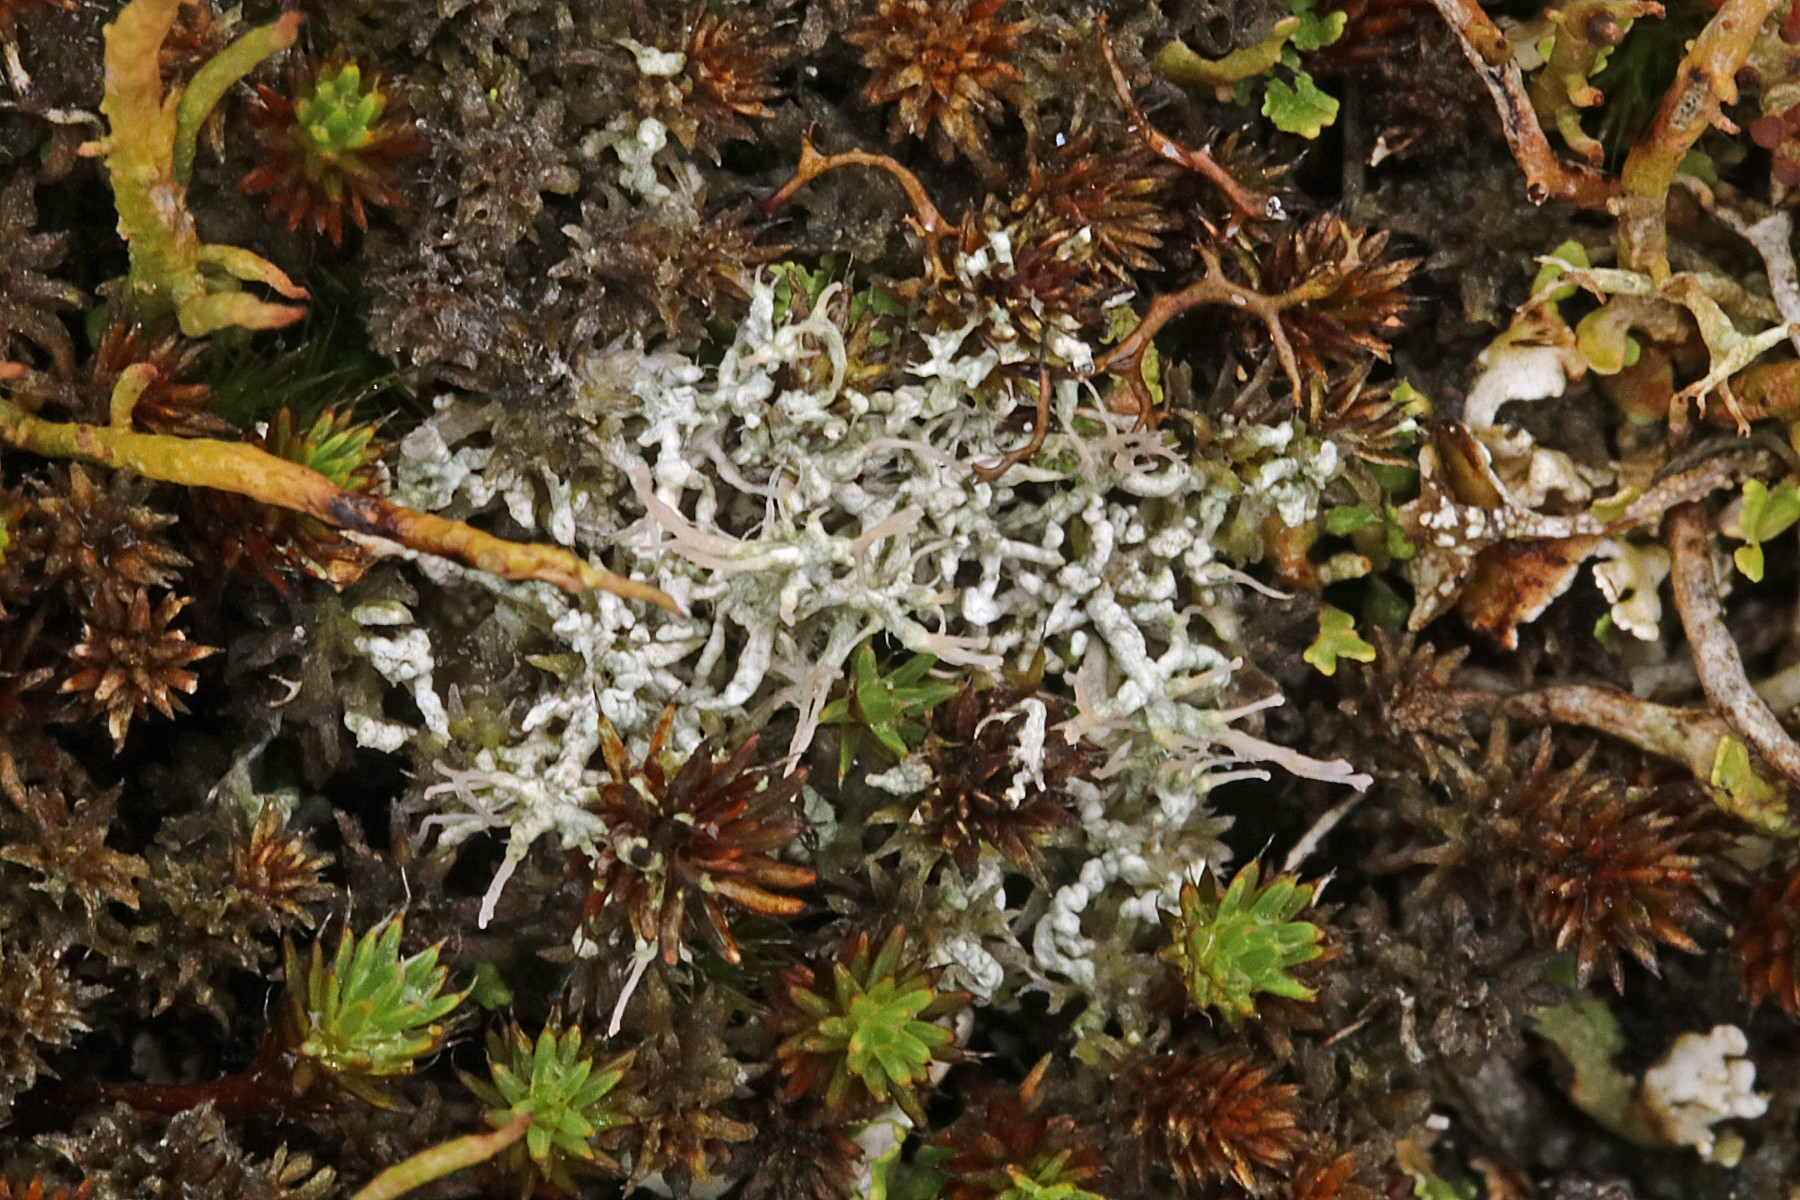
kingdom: Fungi
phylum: Ascomycota
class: Lecanoromycetes
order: Pertusariales
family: Ochrolechiaceae
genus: Ochrolechia
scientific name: Ochrolechia frigida
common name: fjeld-blegskivelav
